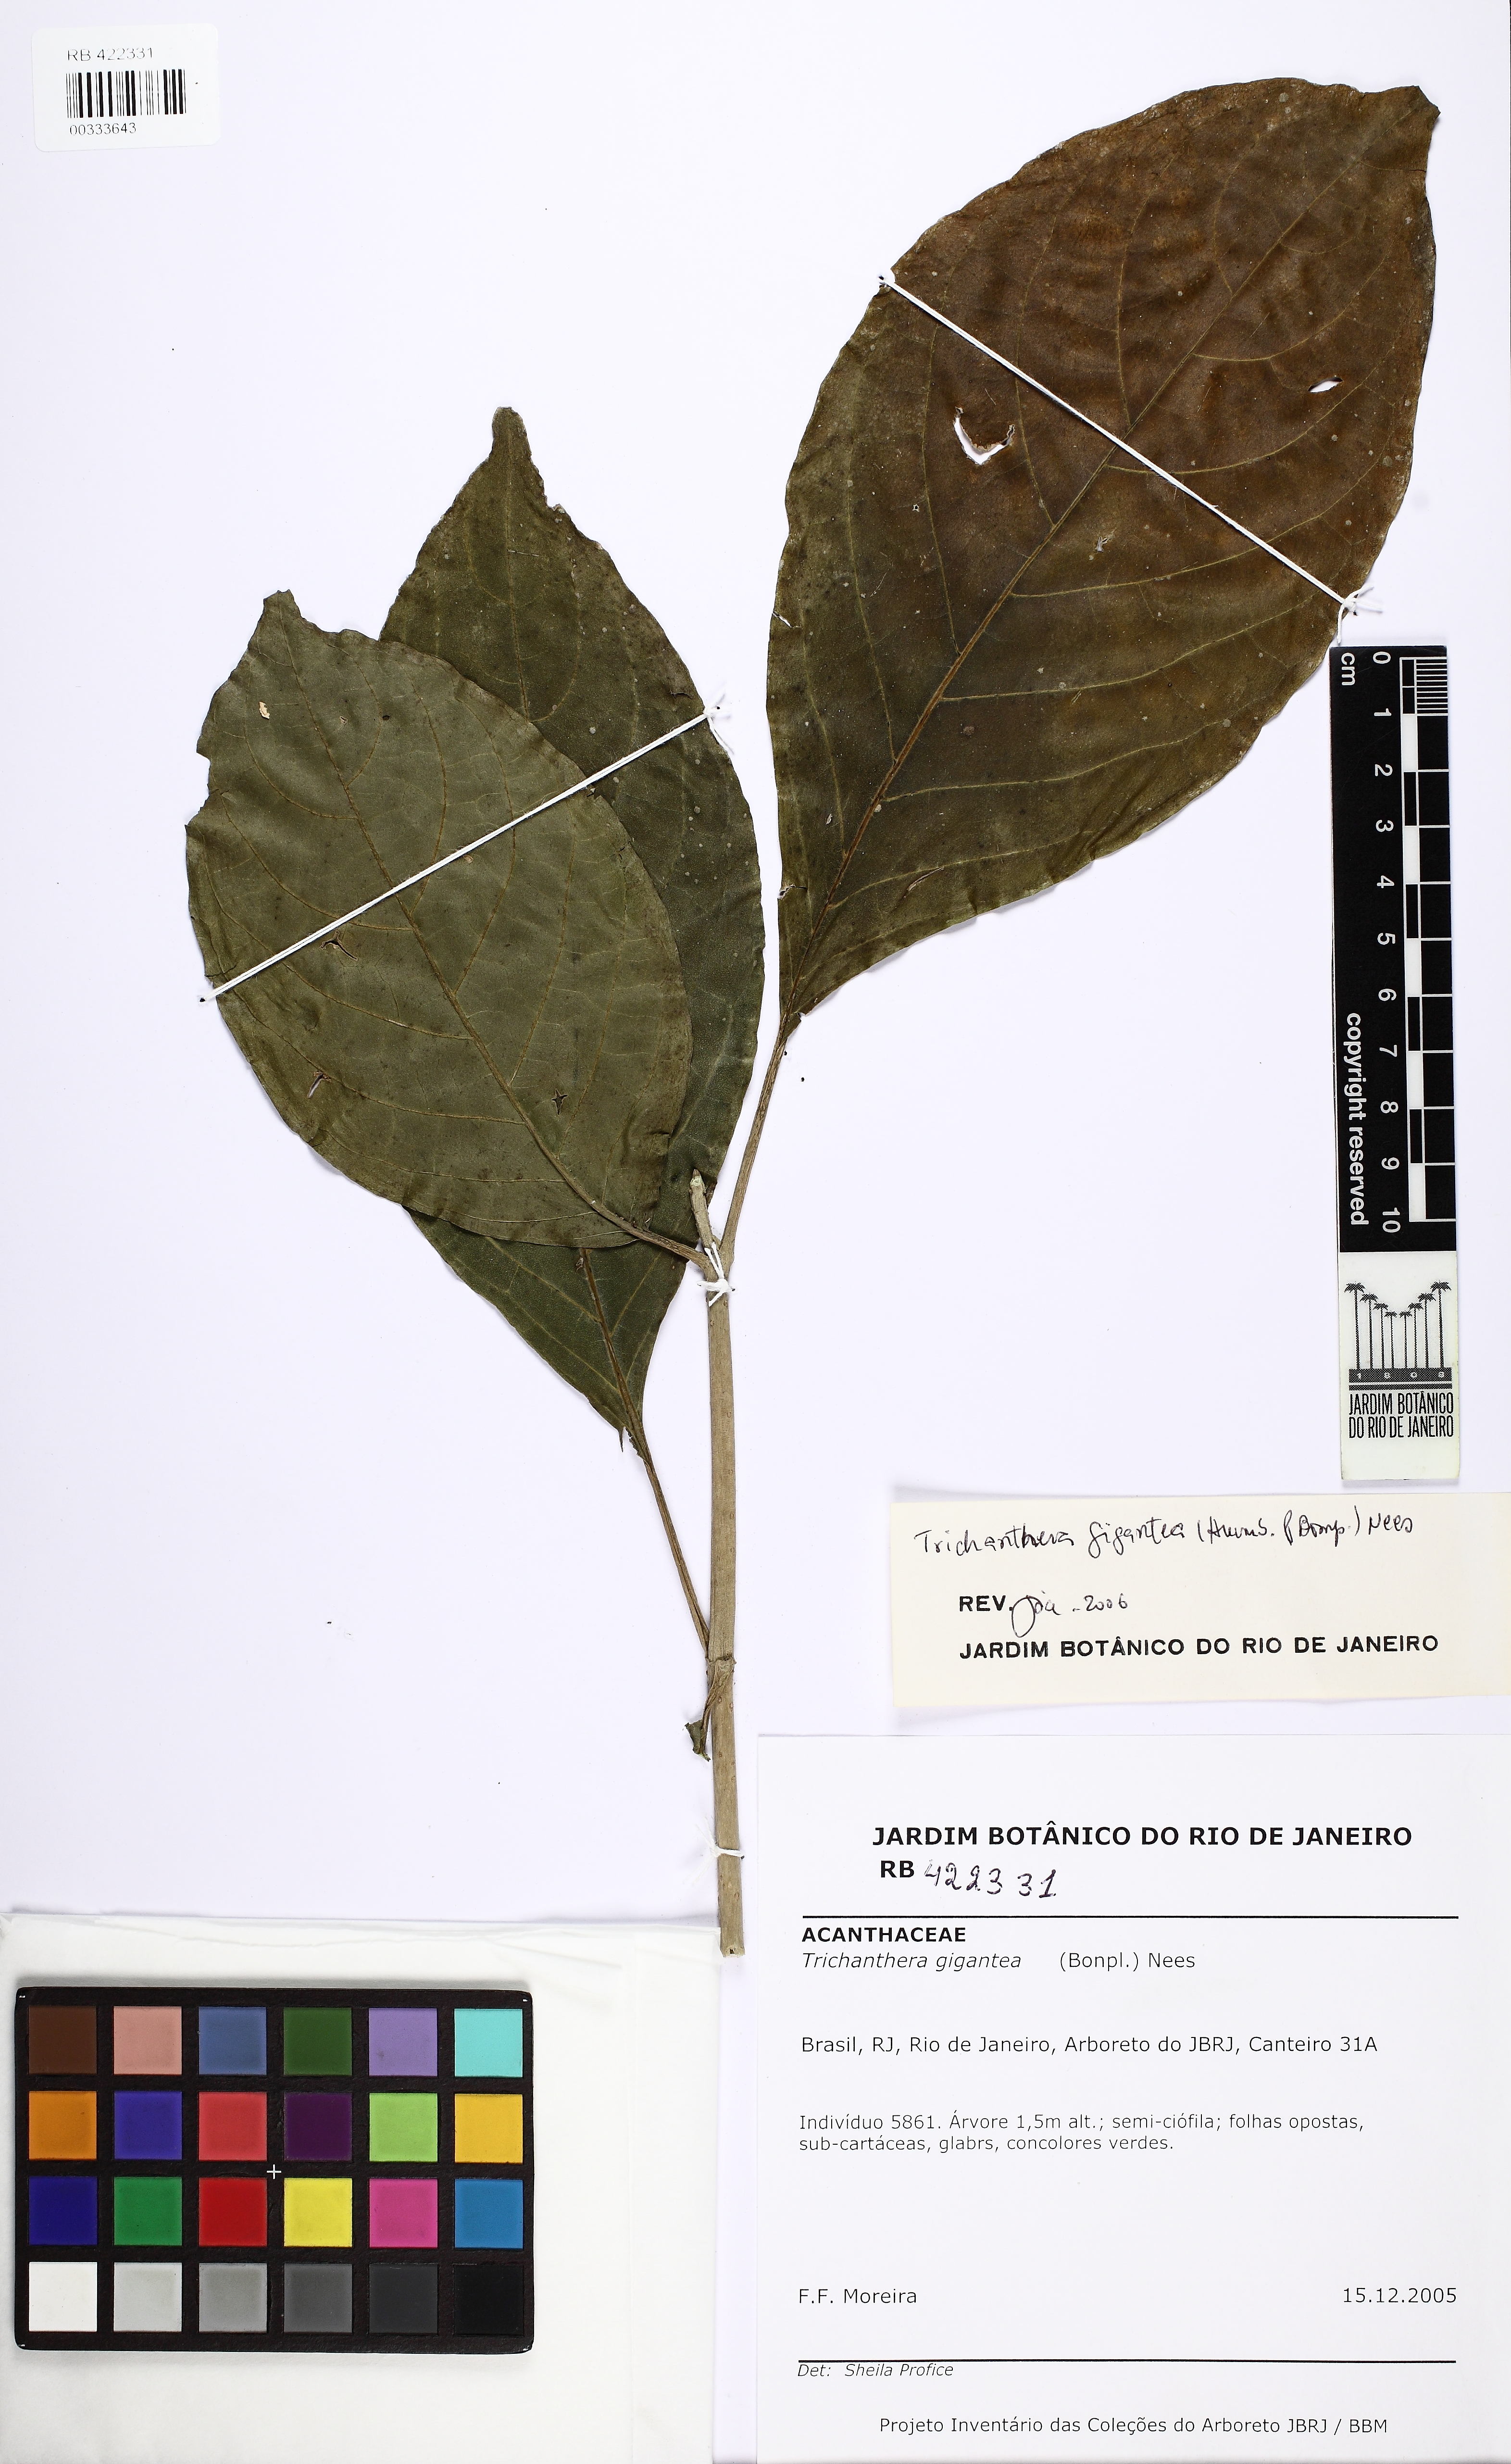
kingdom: Plantae
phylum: Tracheophyta
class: Magnoliopsida
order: Lamiales
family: Acanthaceae
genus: Trichanthera
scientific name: Trichanthera gigantea
